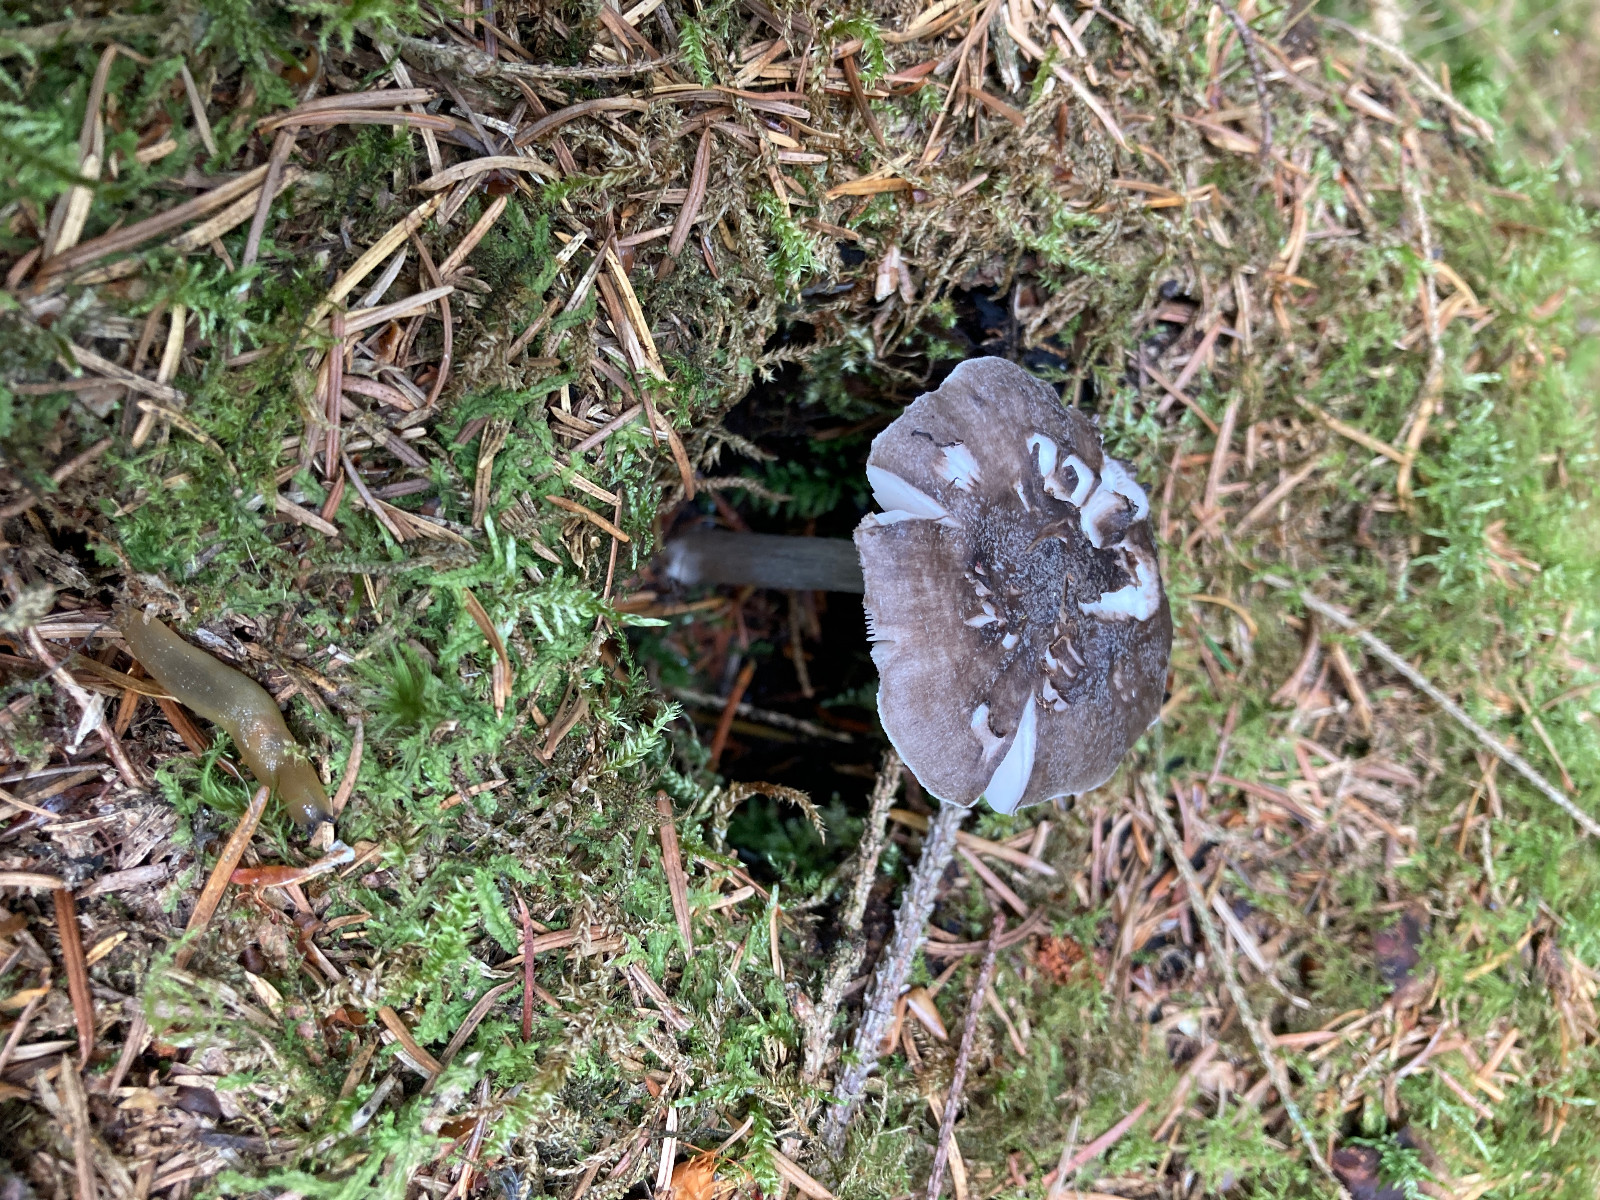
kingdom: Fungi
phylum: Basidiomycota
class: Agaricomycetes
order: Agaricales
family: Pluteaceae
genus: Pluteus
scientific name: Pluteus
